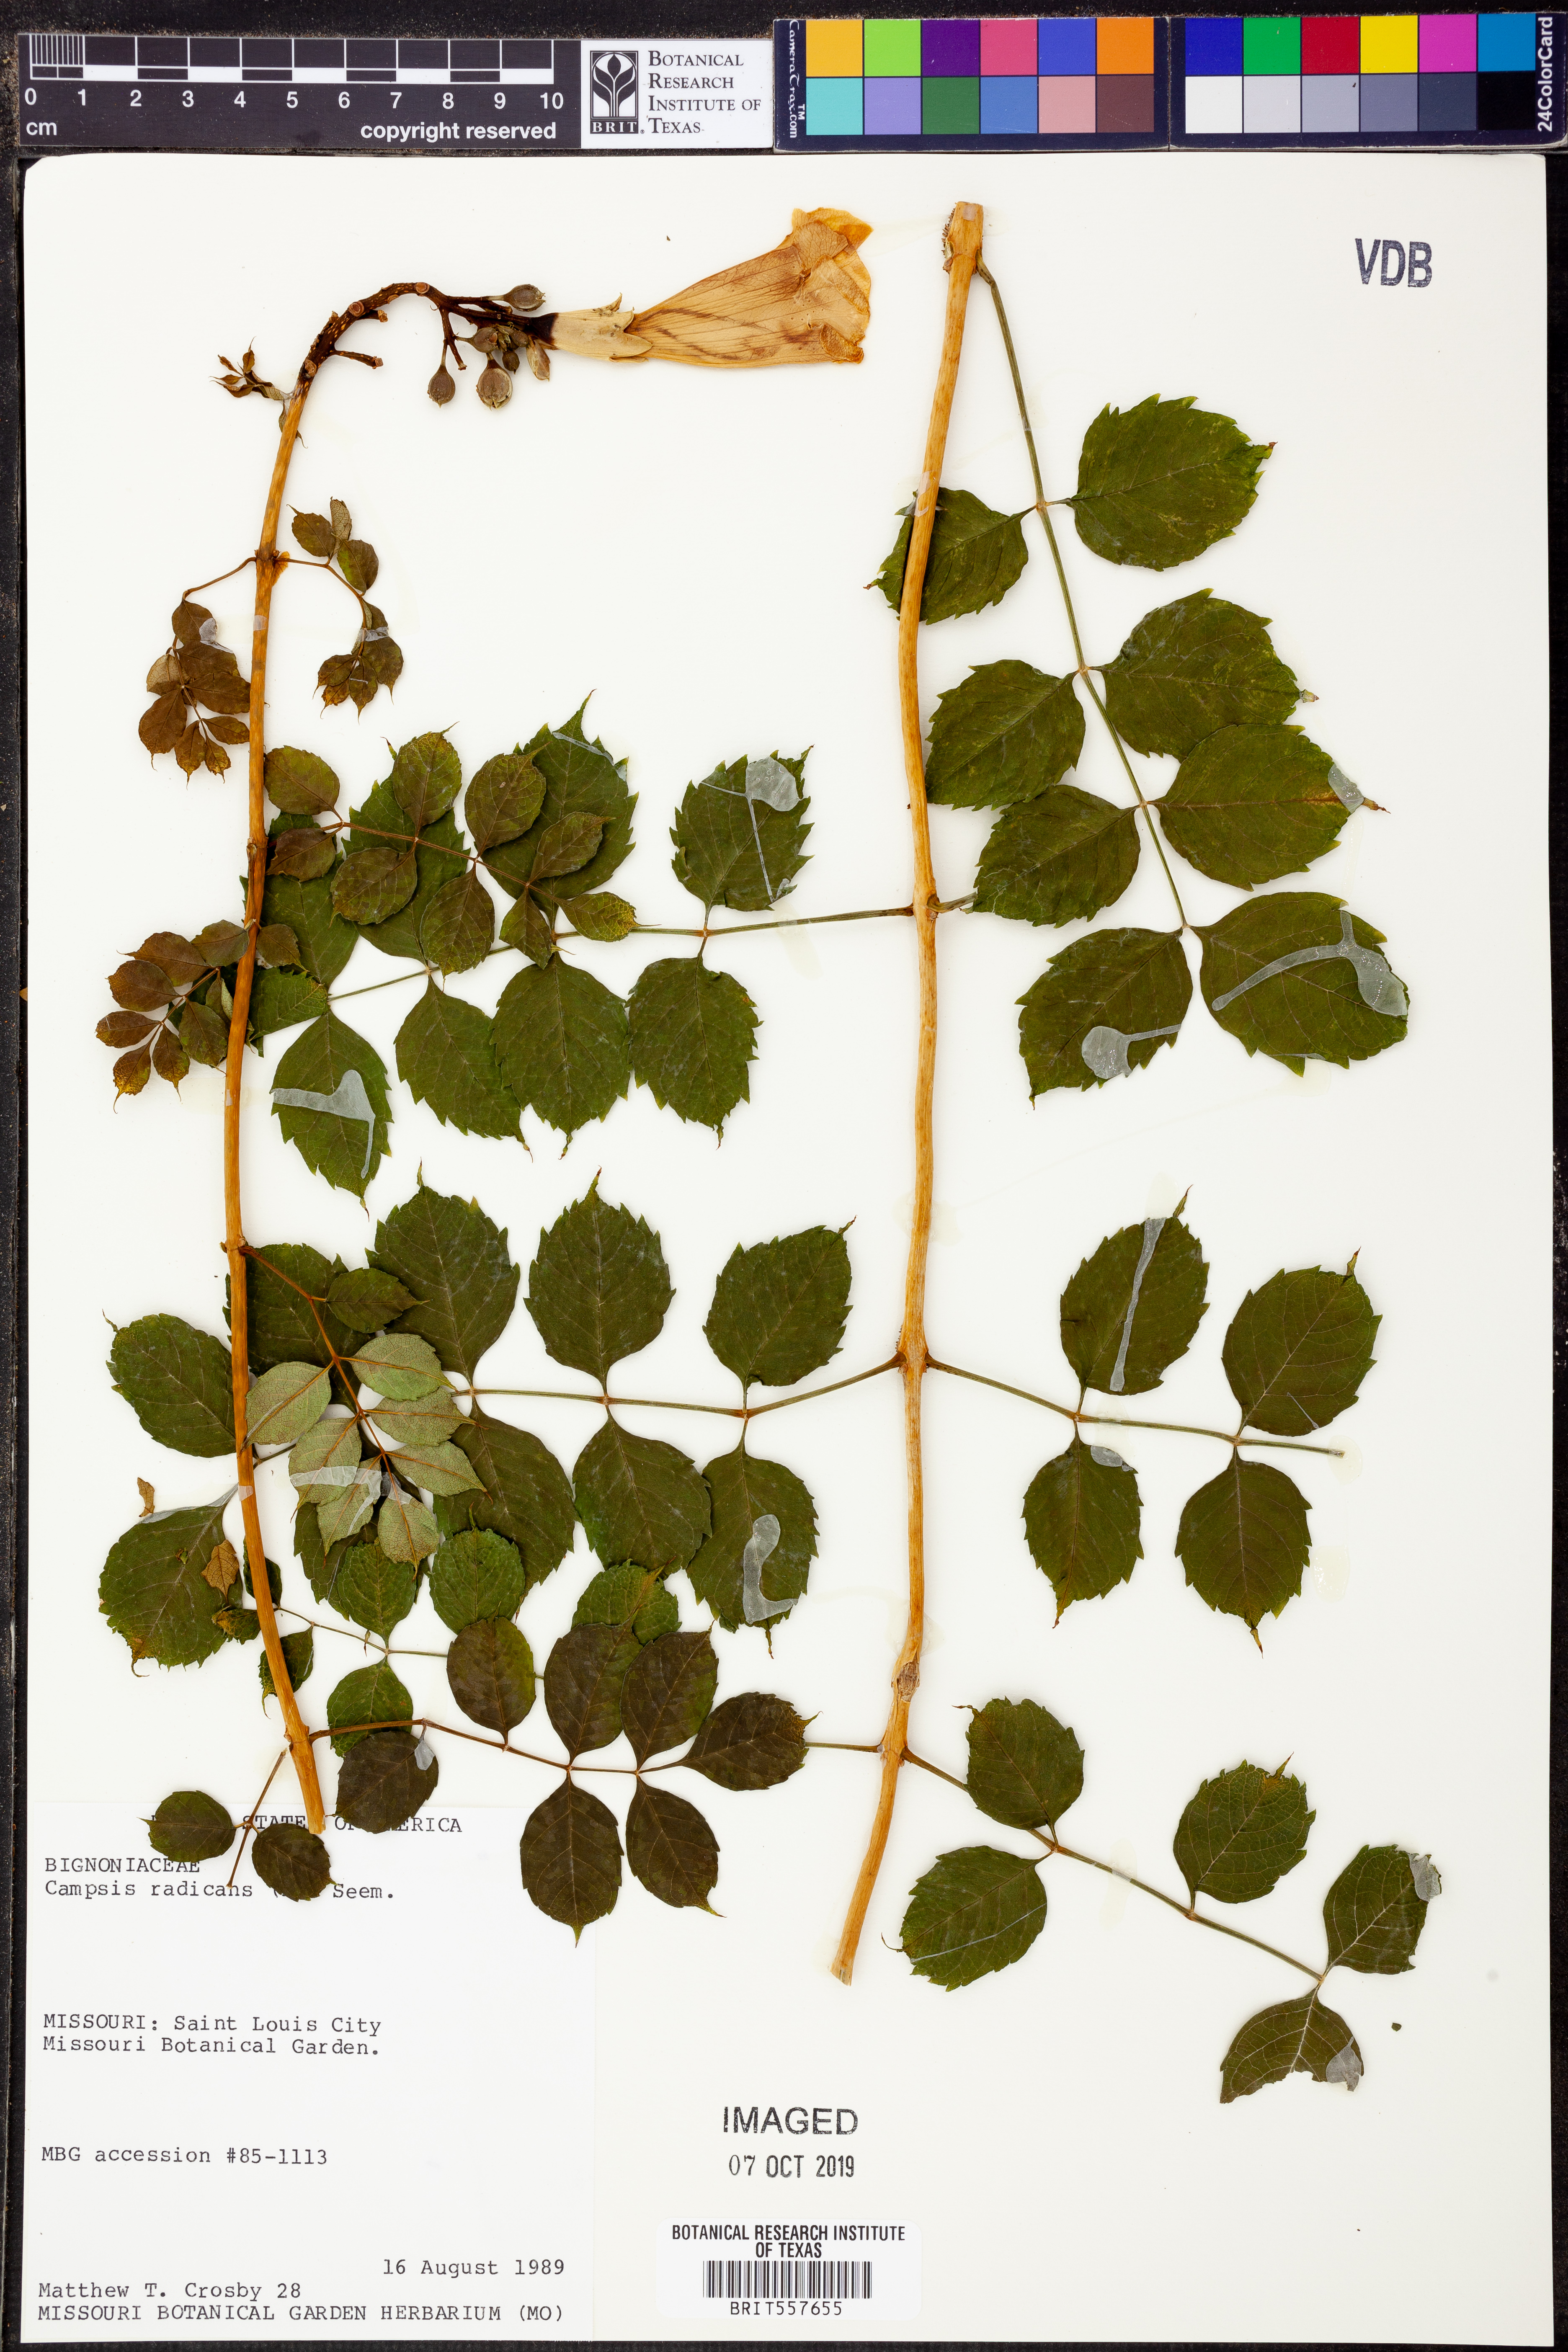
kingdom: Plantae
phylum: Tracheophyta
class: Magnoliopsida
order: Lamiales
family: Bignoniaceae
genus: Campsis
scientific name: Campsis radicans
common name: Trumpet-creeper
